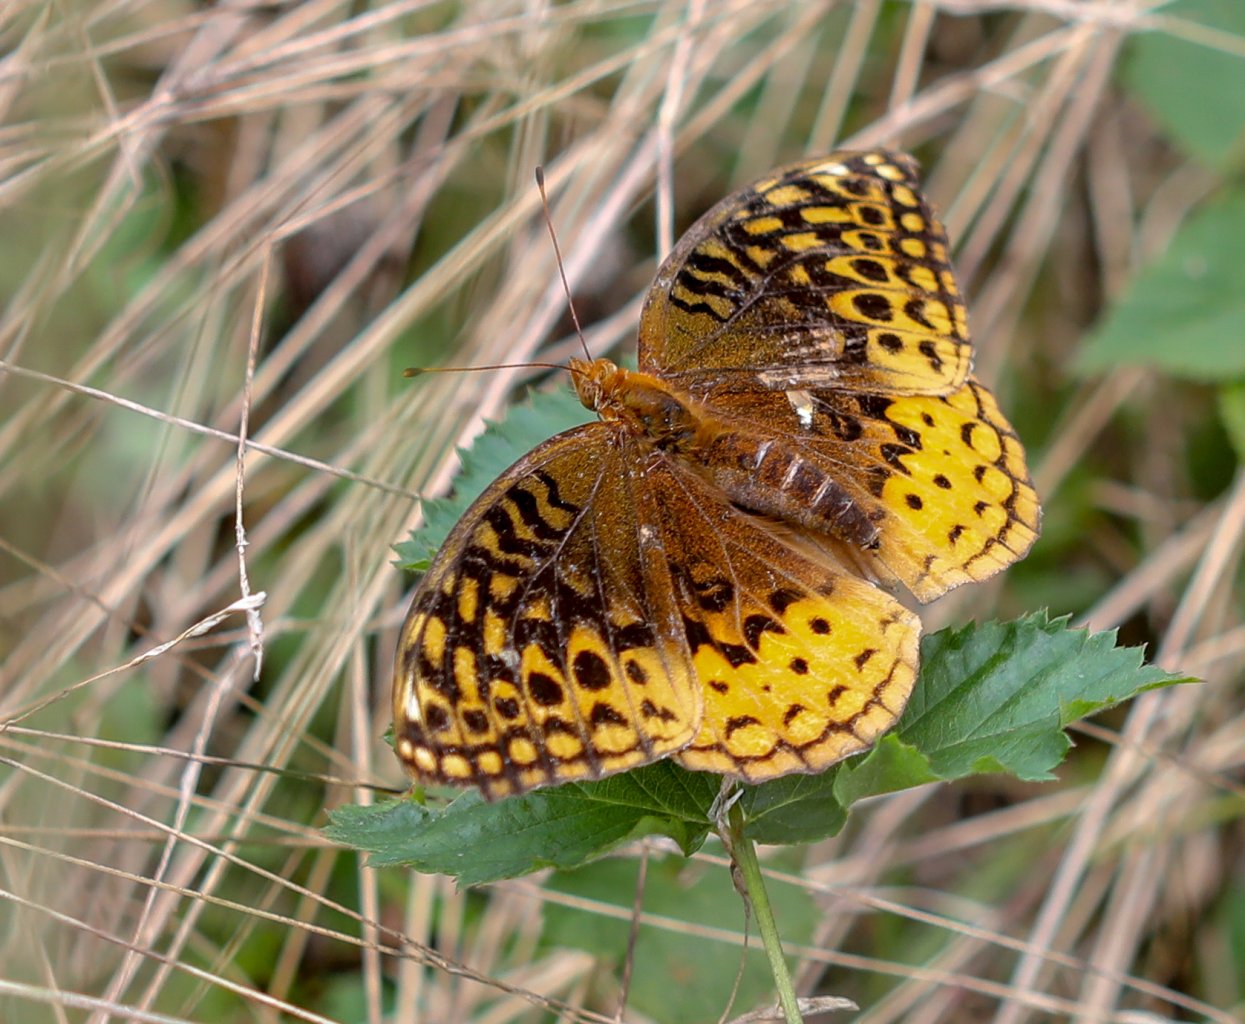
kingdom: Animalia
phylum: Arthropoda
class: Insecta
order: Lepidoptera
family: Nymphalidae
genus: Speyeria
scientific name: Speyeria cybele
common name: Great Spangled Fritillary
